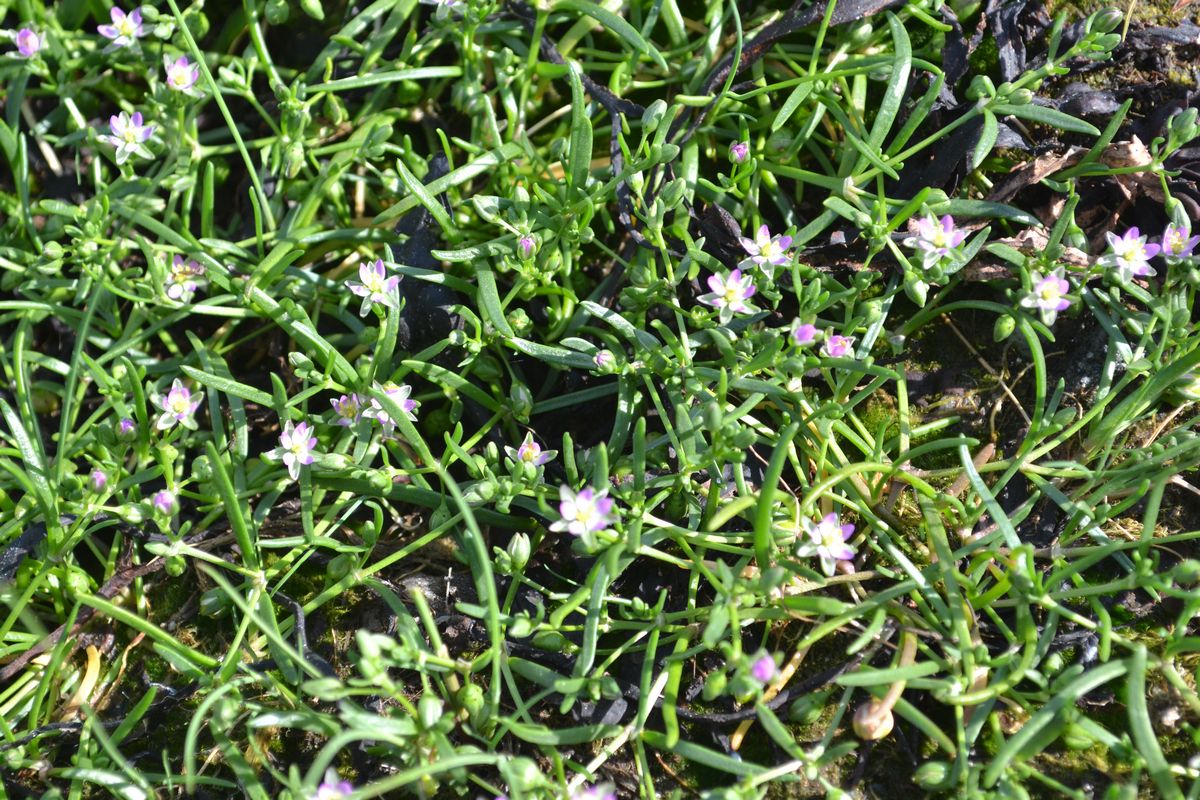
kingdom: Plantae
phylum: Tracheophyta
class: Magnoliopsida
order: Caryophyllales
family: Caryophyllaceae
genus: Spergularia
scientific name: Spergularia marina
